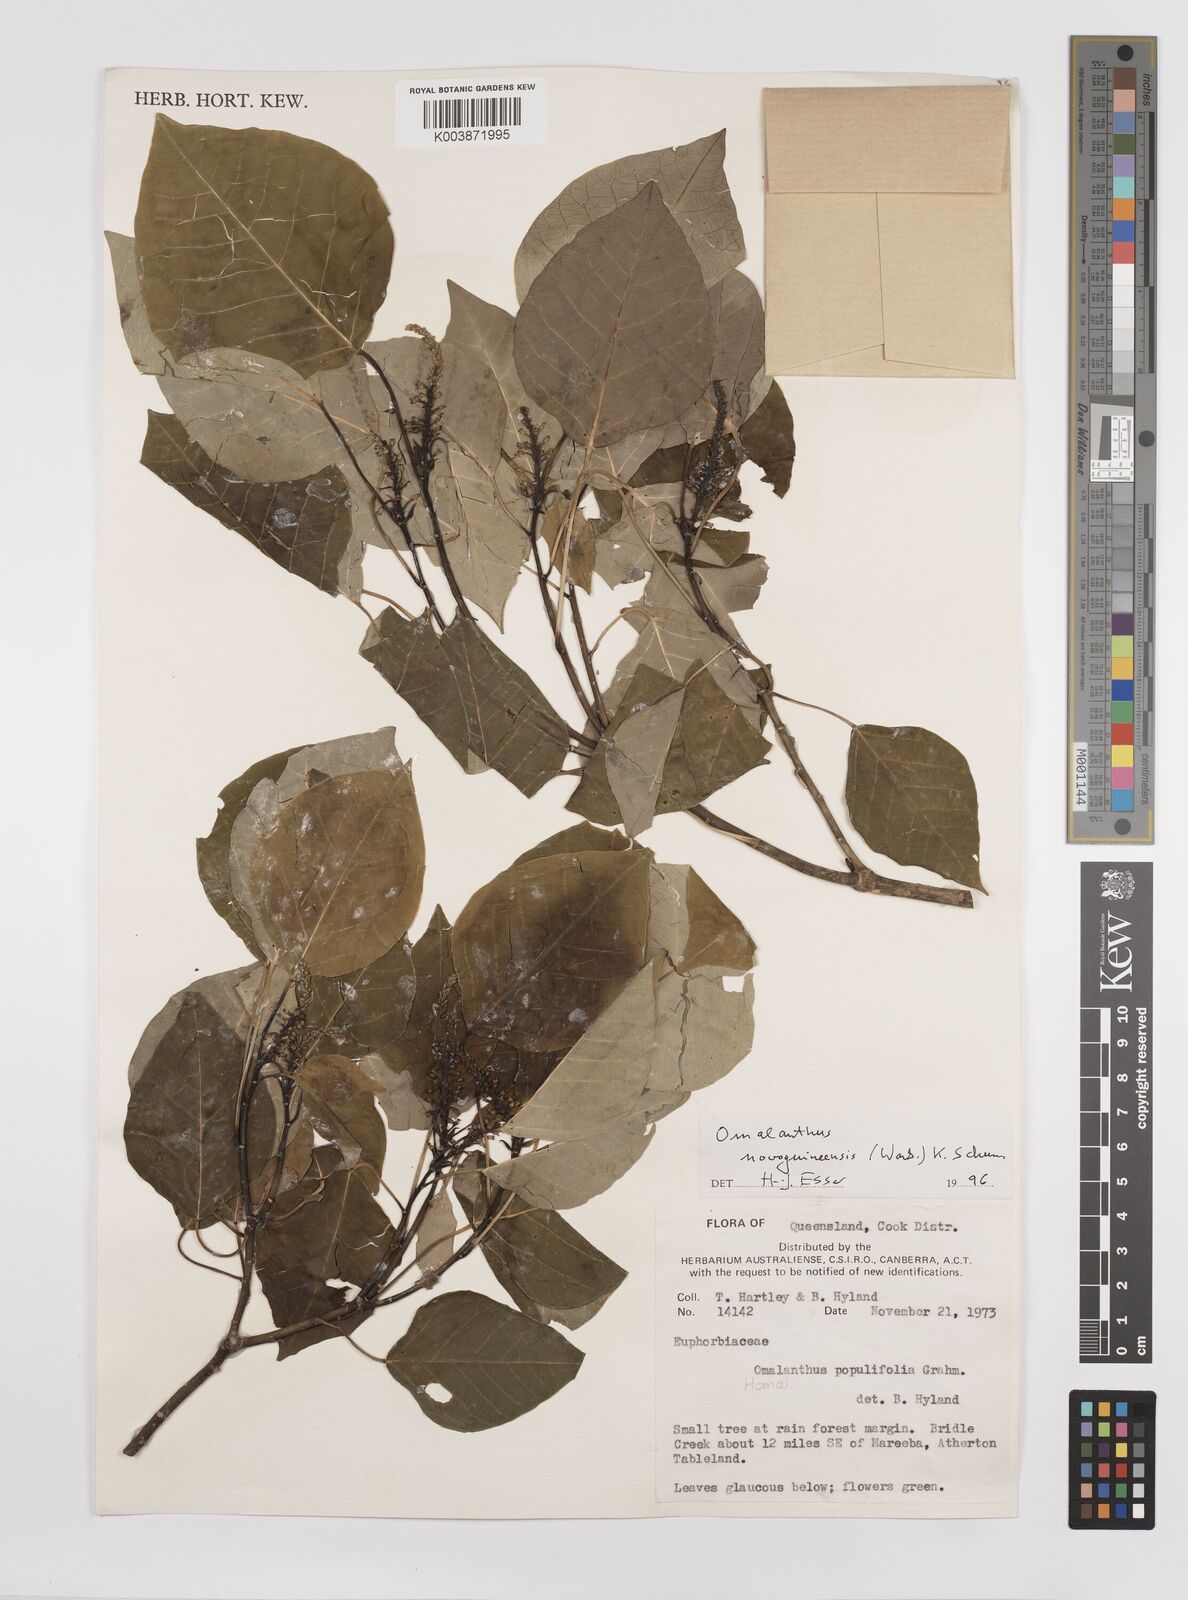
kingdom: Plantae
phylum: Tracheophyta
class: Magnoliopsida
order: Malpighiales
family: Euphorbiaceae
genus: Homalanthus
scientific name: Homalanthus novoguineensis
